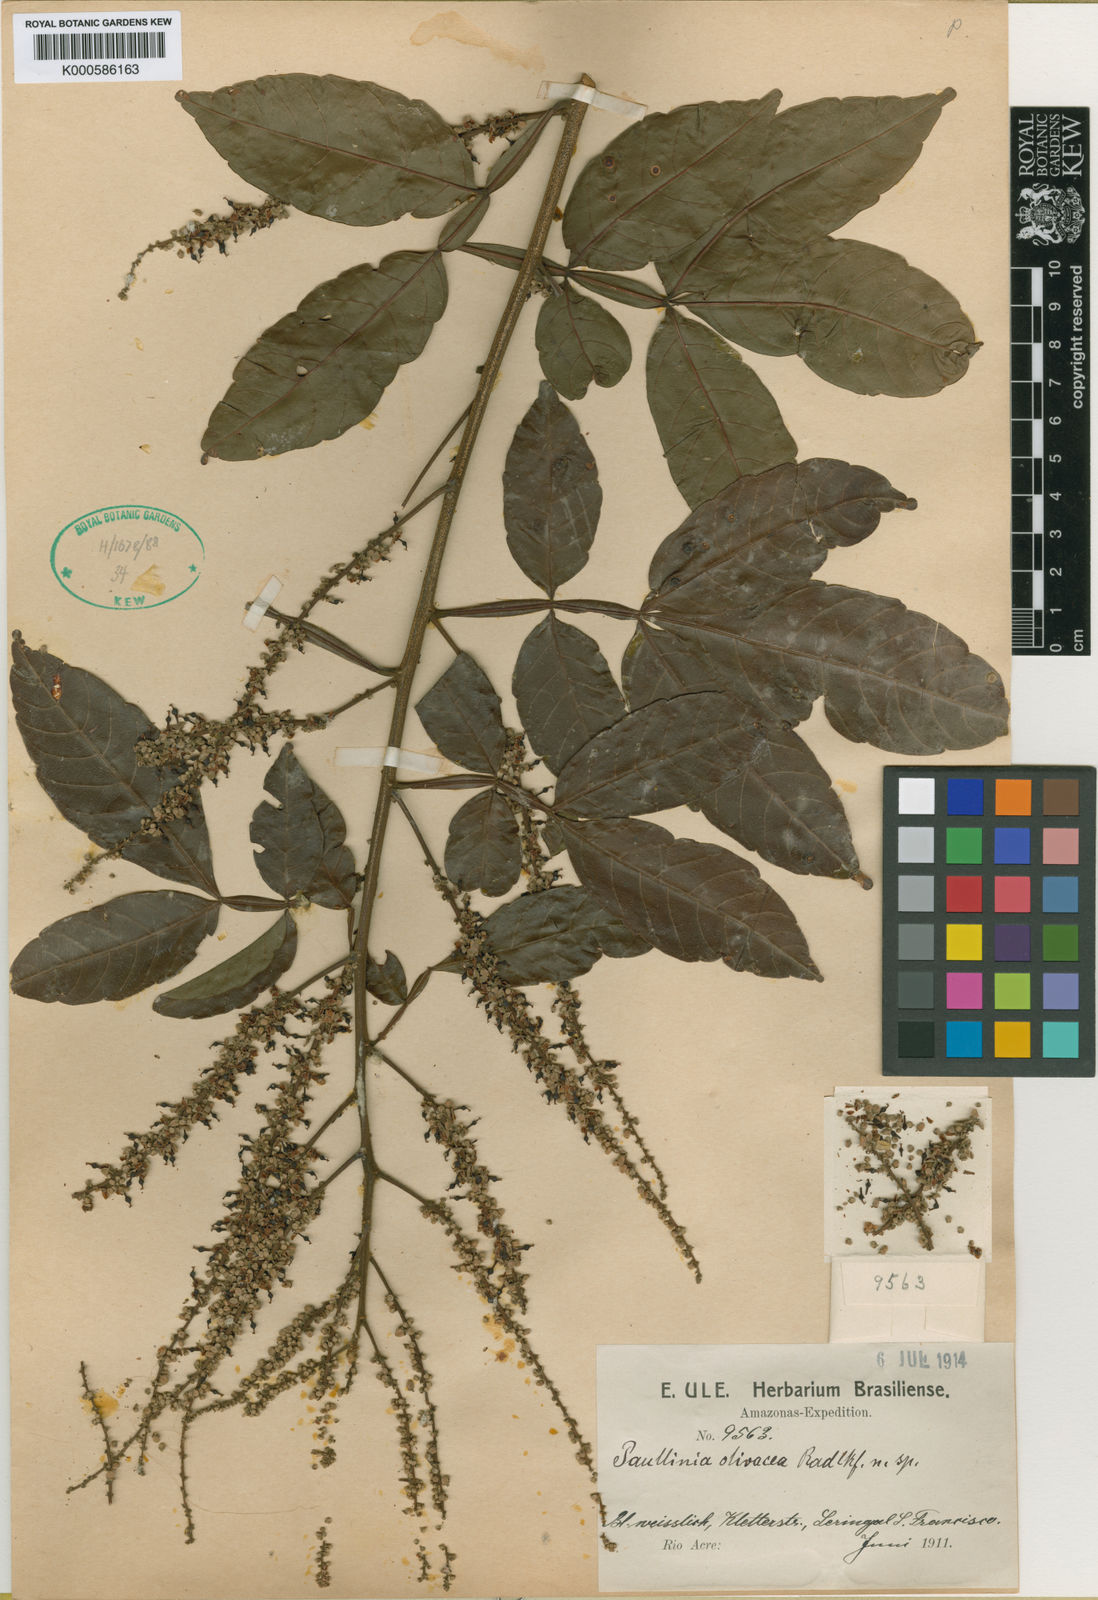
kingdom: Plantae
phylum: Tracheophyta
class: Magnoliopsida
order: Sapindales
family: Sapindaceae
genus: Paullinia
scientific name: Paullinia pterophylla
